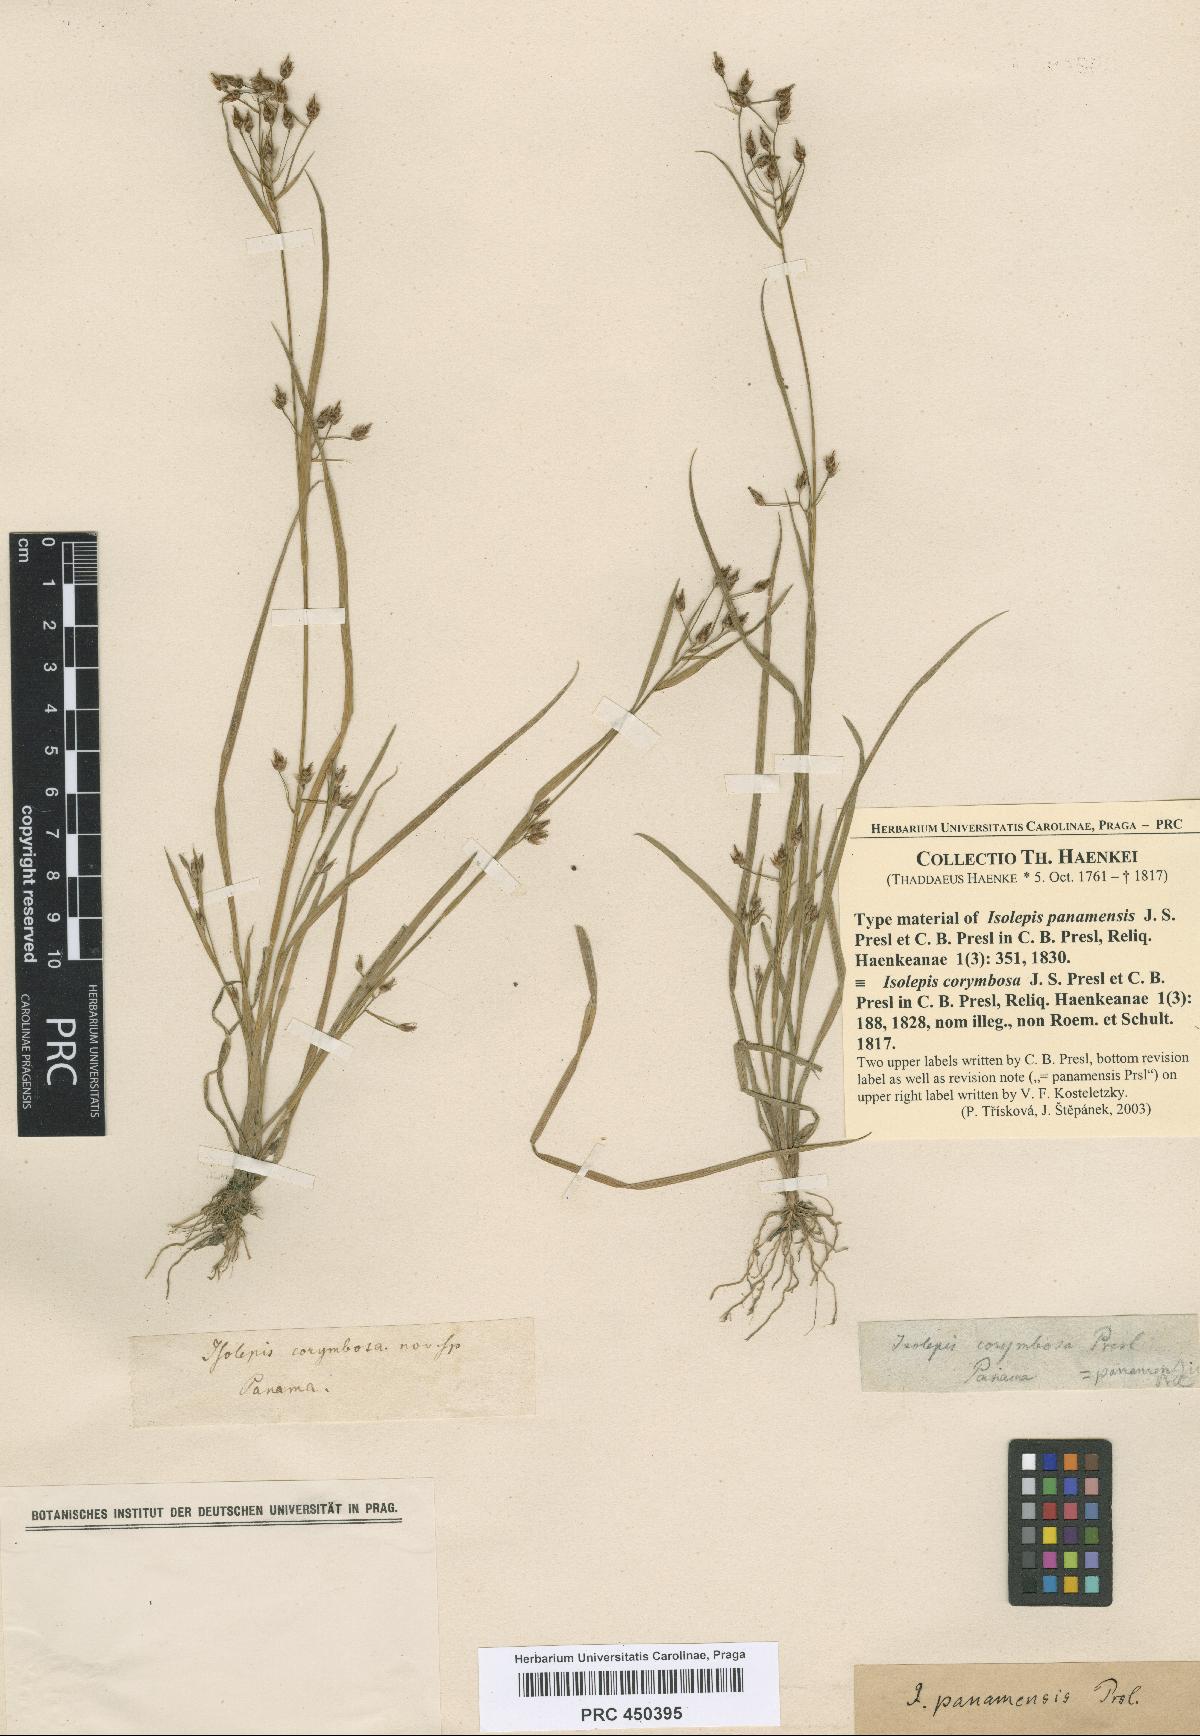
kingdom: Plantae
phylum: Tracheophyta
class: Liliopsida
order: Poales
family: Cyperaceae
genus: Isolepis
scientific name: Isolepis panamensis
